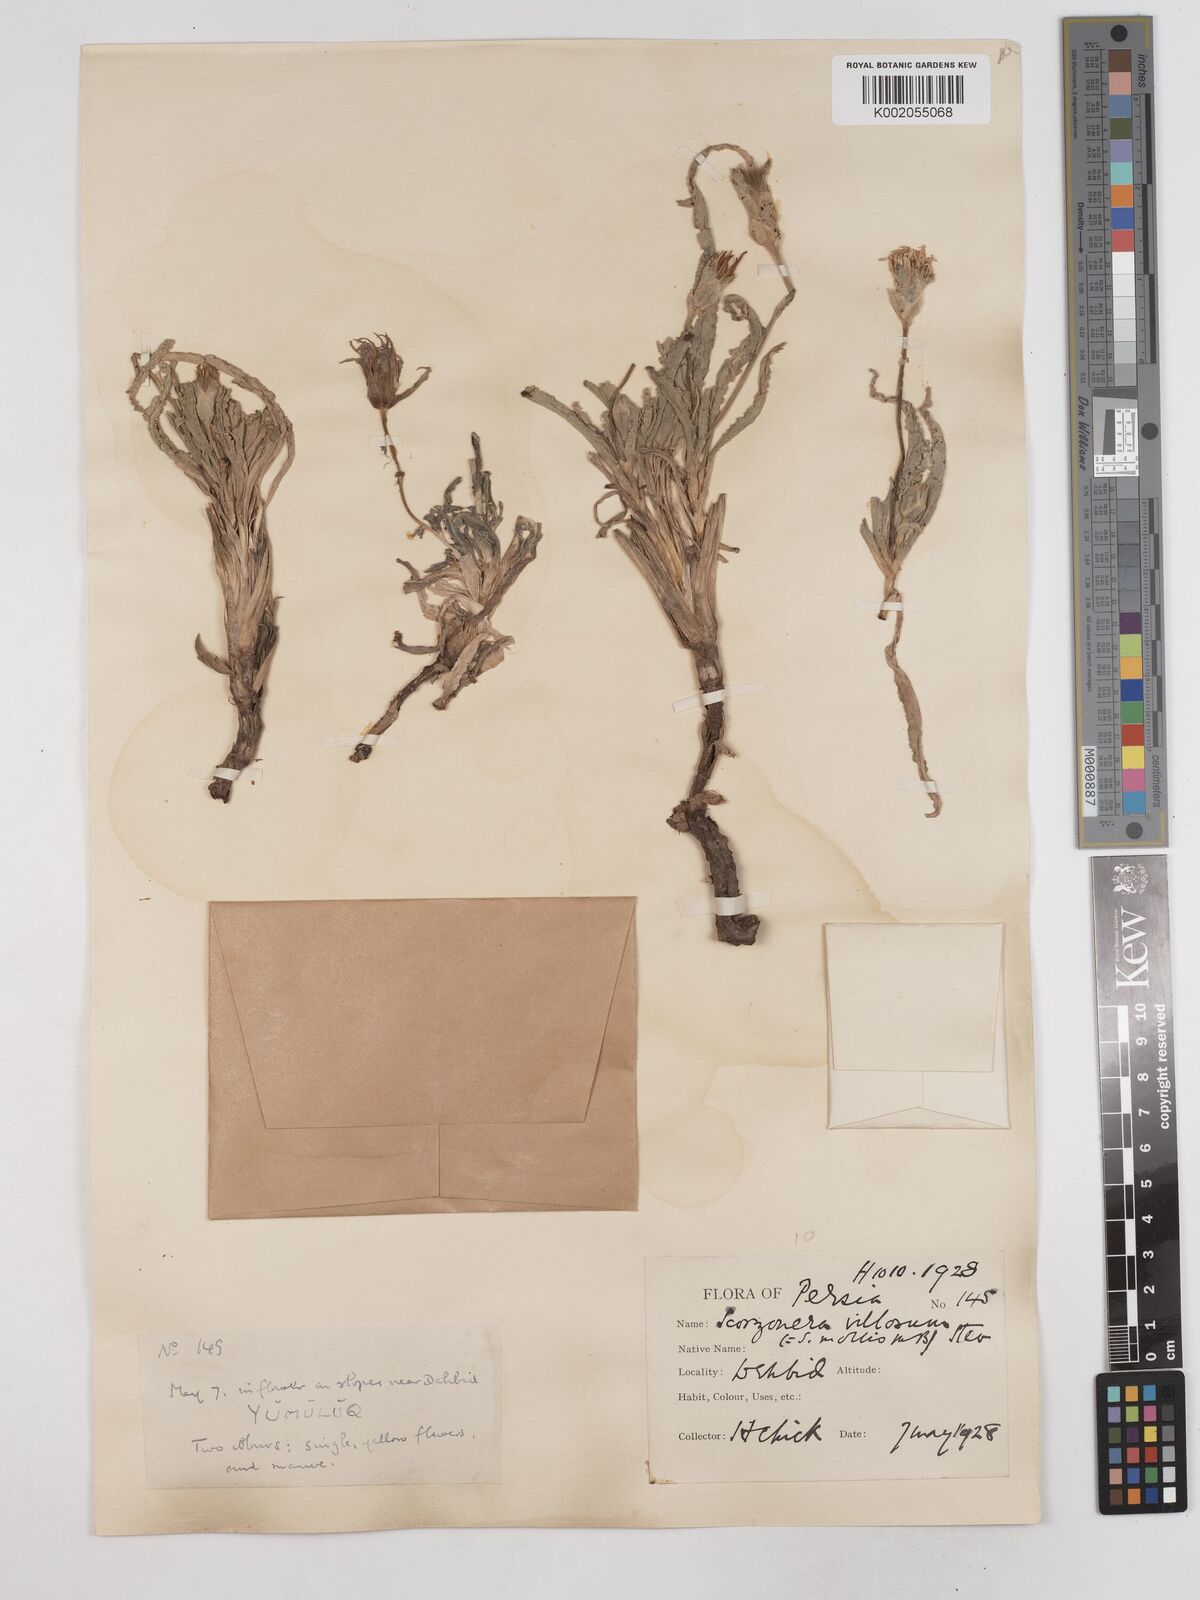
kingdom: Plantae
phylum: Tracheophyta
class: Magnoliopsida
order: Asterales
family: Asteraceae
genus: Candollea
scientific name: Candollea mollis
